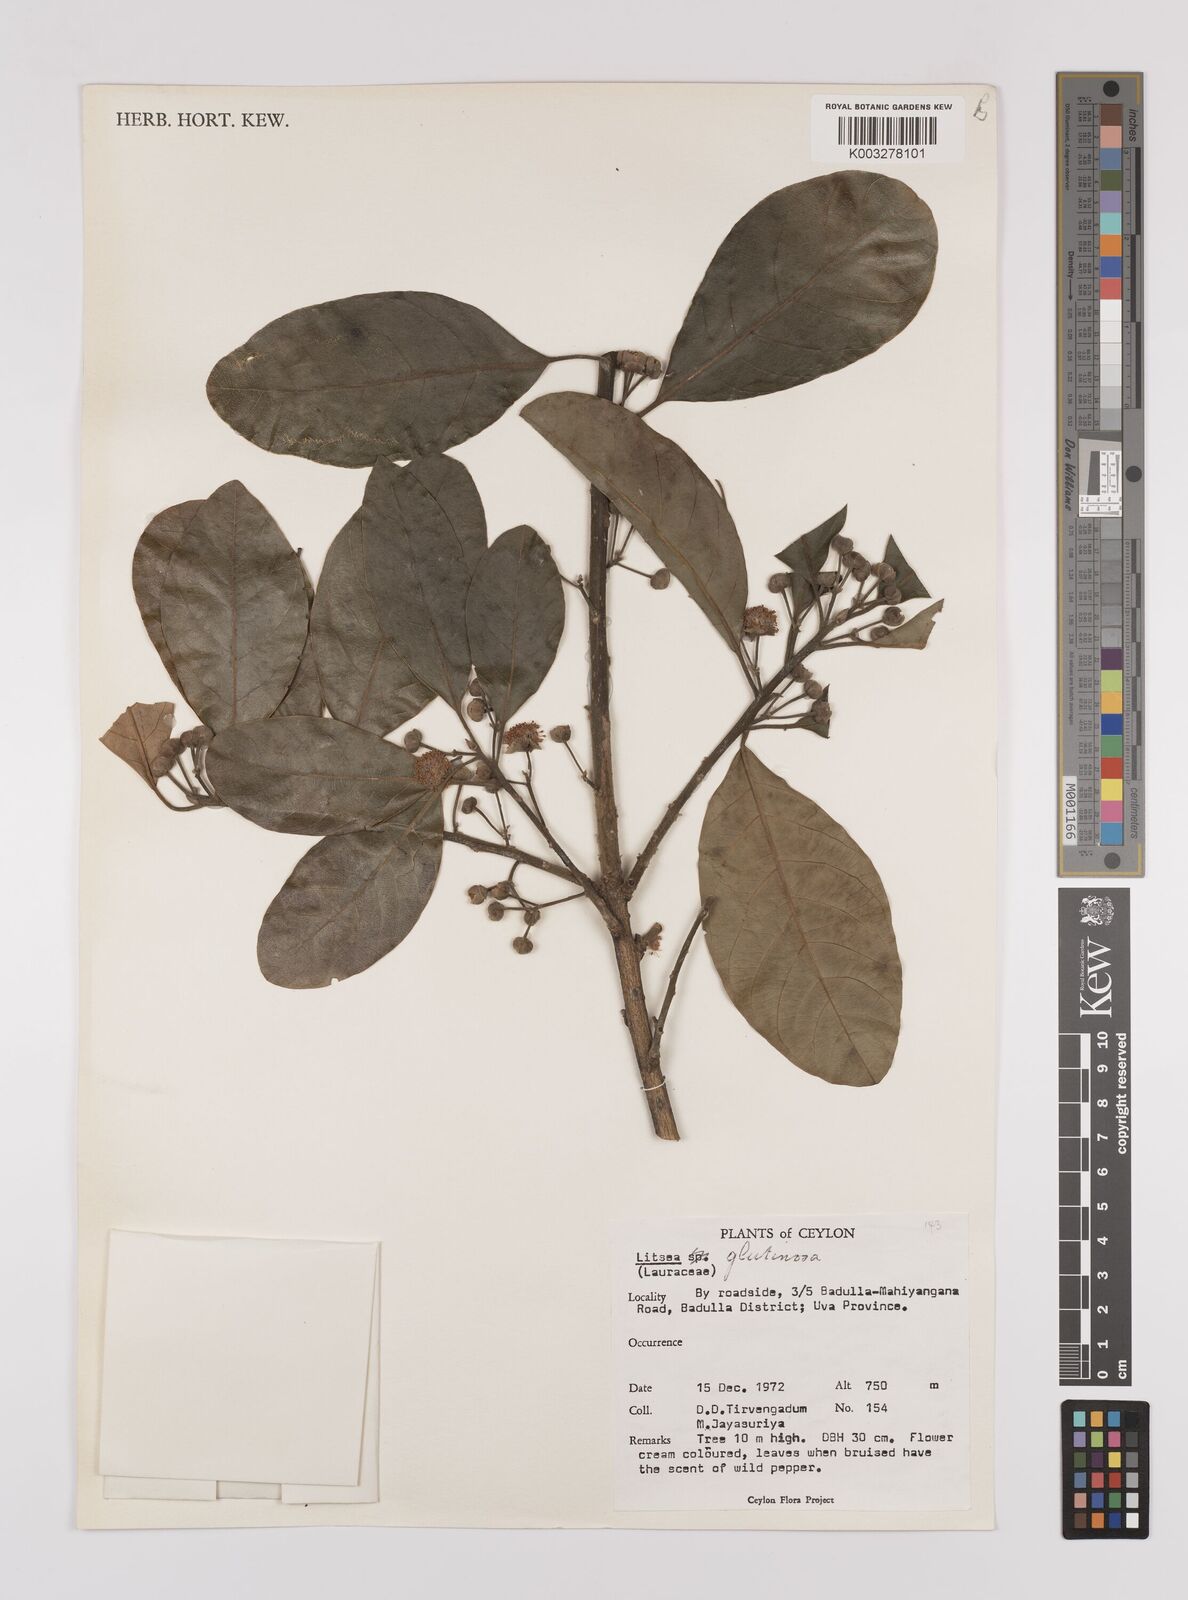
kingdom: Plantae
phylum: Tracheophyta
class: Magnoliopsida
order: Laurales
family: Lauraceae
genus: Litsea
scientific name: Litsea
